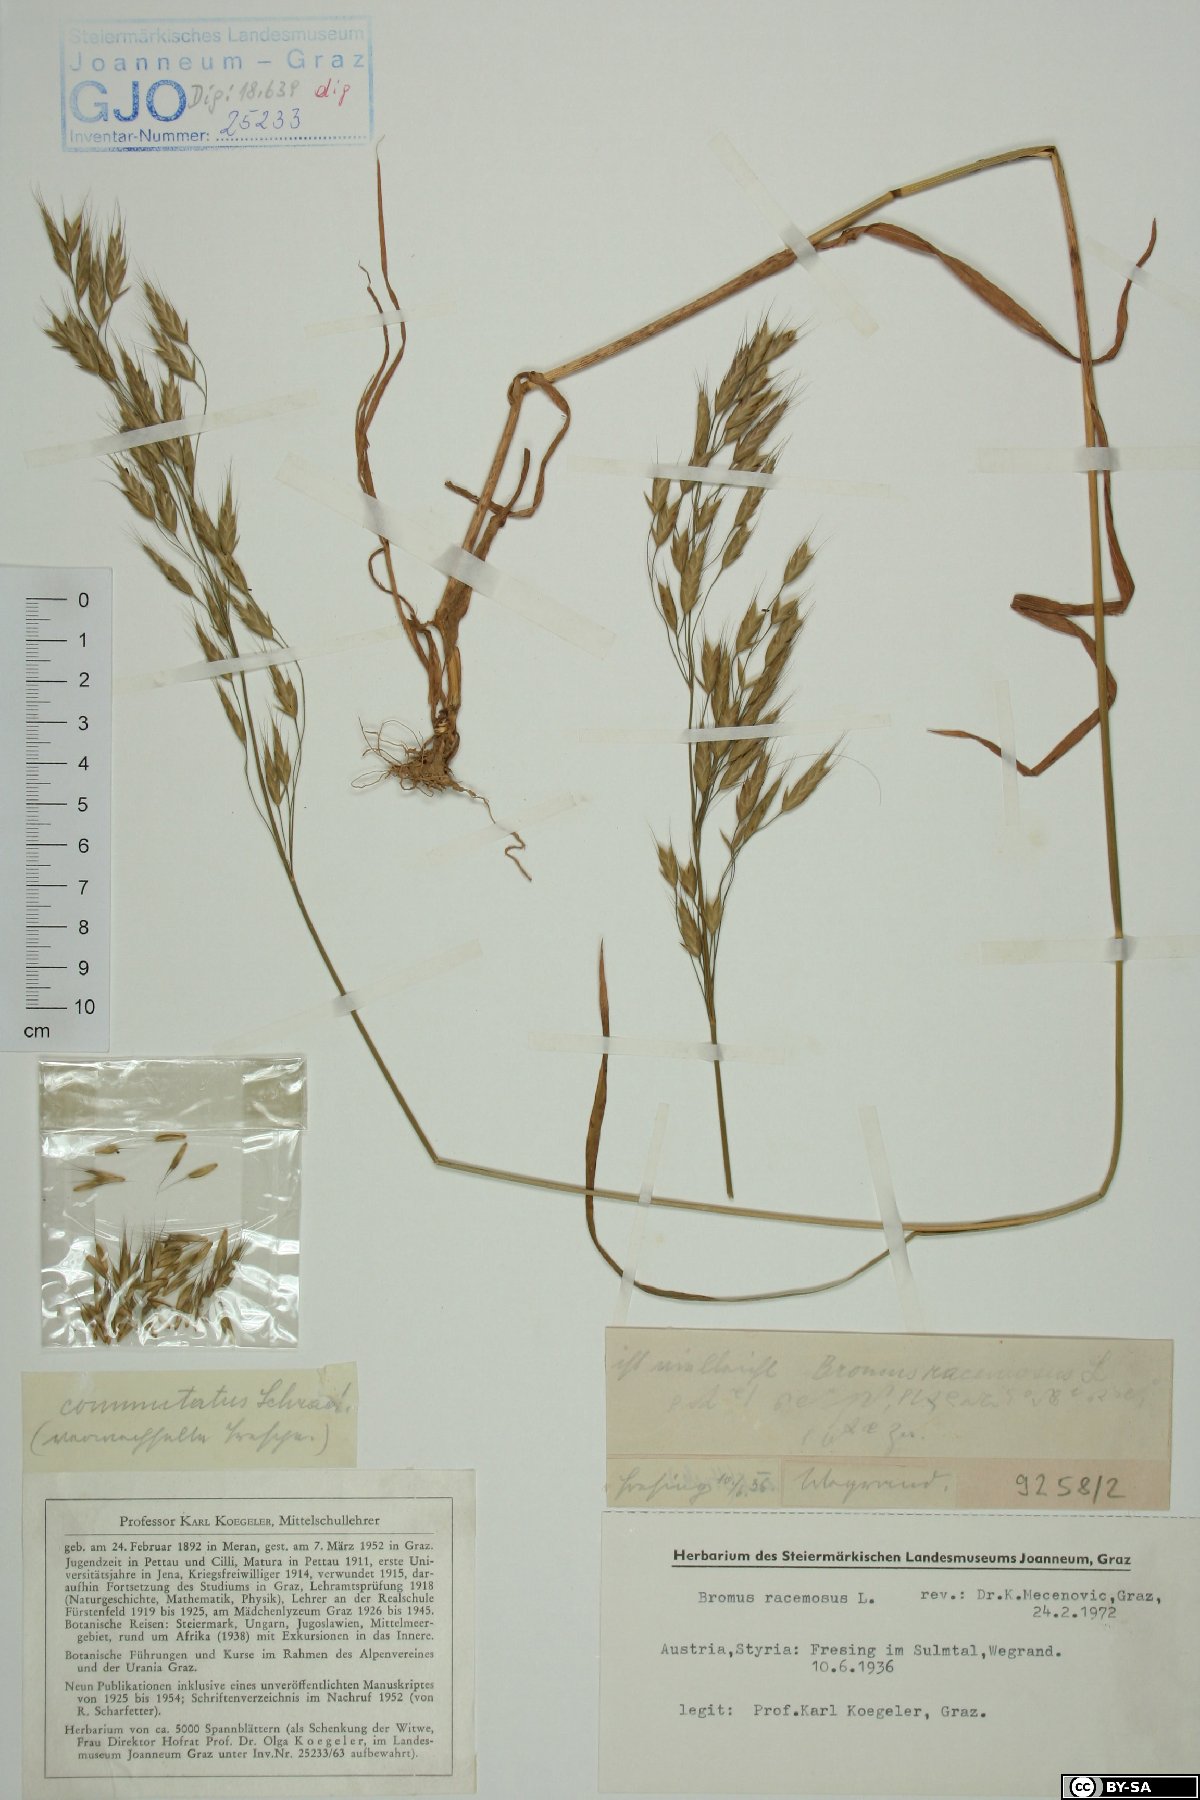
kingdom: Plantae
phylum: Tracheophyta
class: Liliopsida
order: Poales
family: Poaceae
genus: Bromus
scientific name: Bromus racemosus
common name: Bald brome
